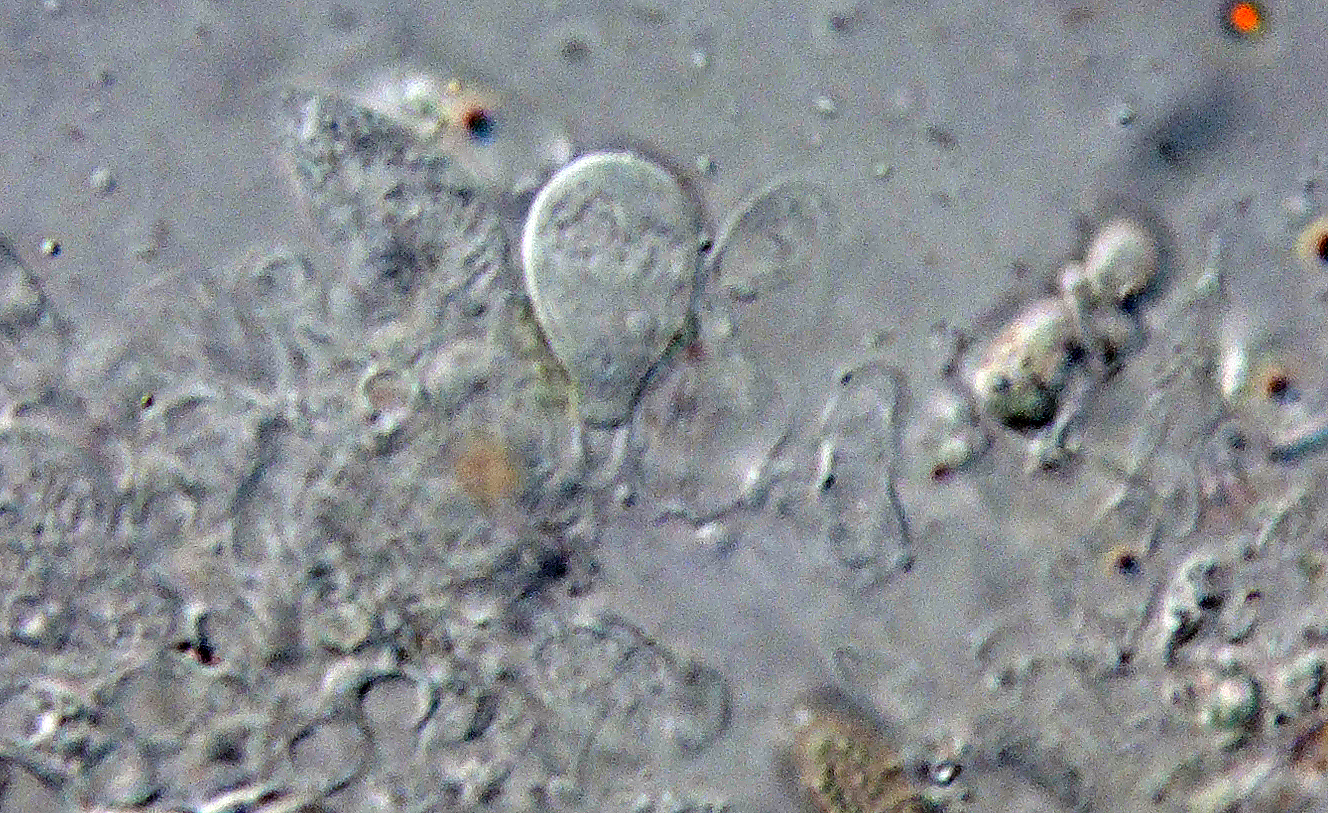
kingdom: Fungi
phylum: Basidiomycota
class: Agaricomycetes
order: Auriculariales
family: Hyaloriaceae
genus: Myxarium
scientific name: Myxarium
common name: bævretop
